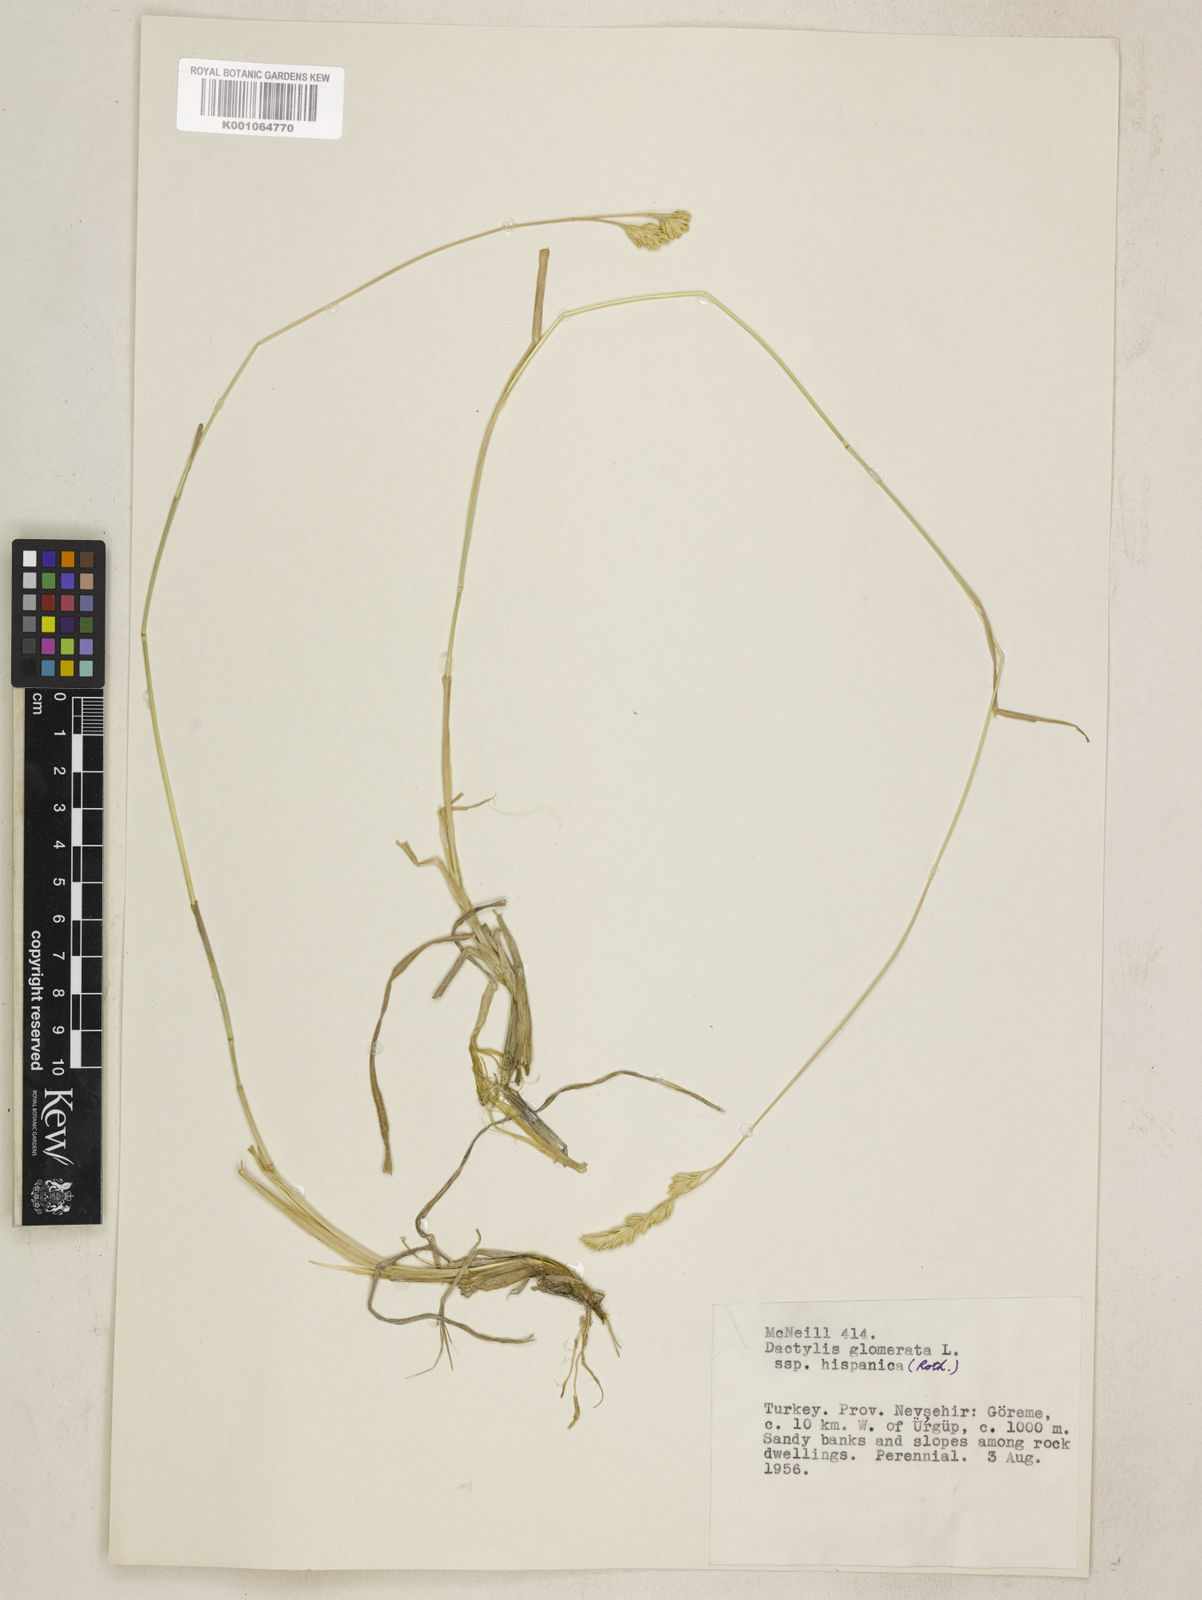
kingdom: Plantae
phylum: Tracheophyta
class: Liliopsida
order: Poales
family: Poaceae
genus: Dactylis
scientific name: Dactylis glomerata
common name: Orchardgrass
